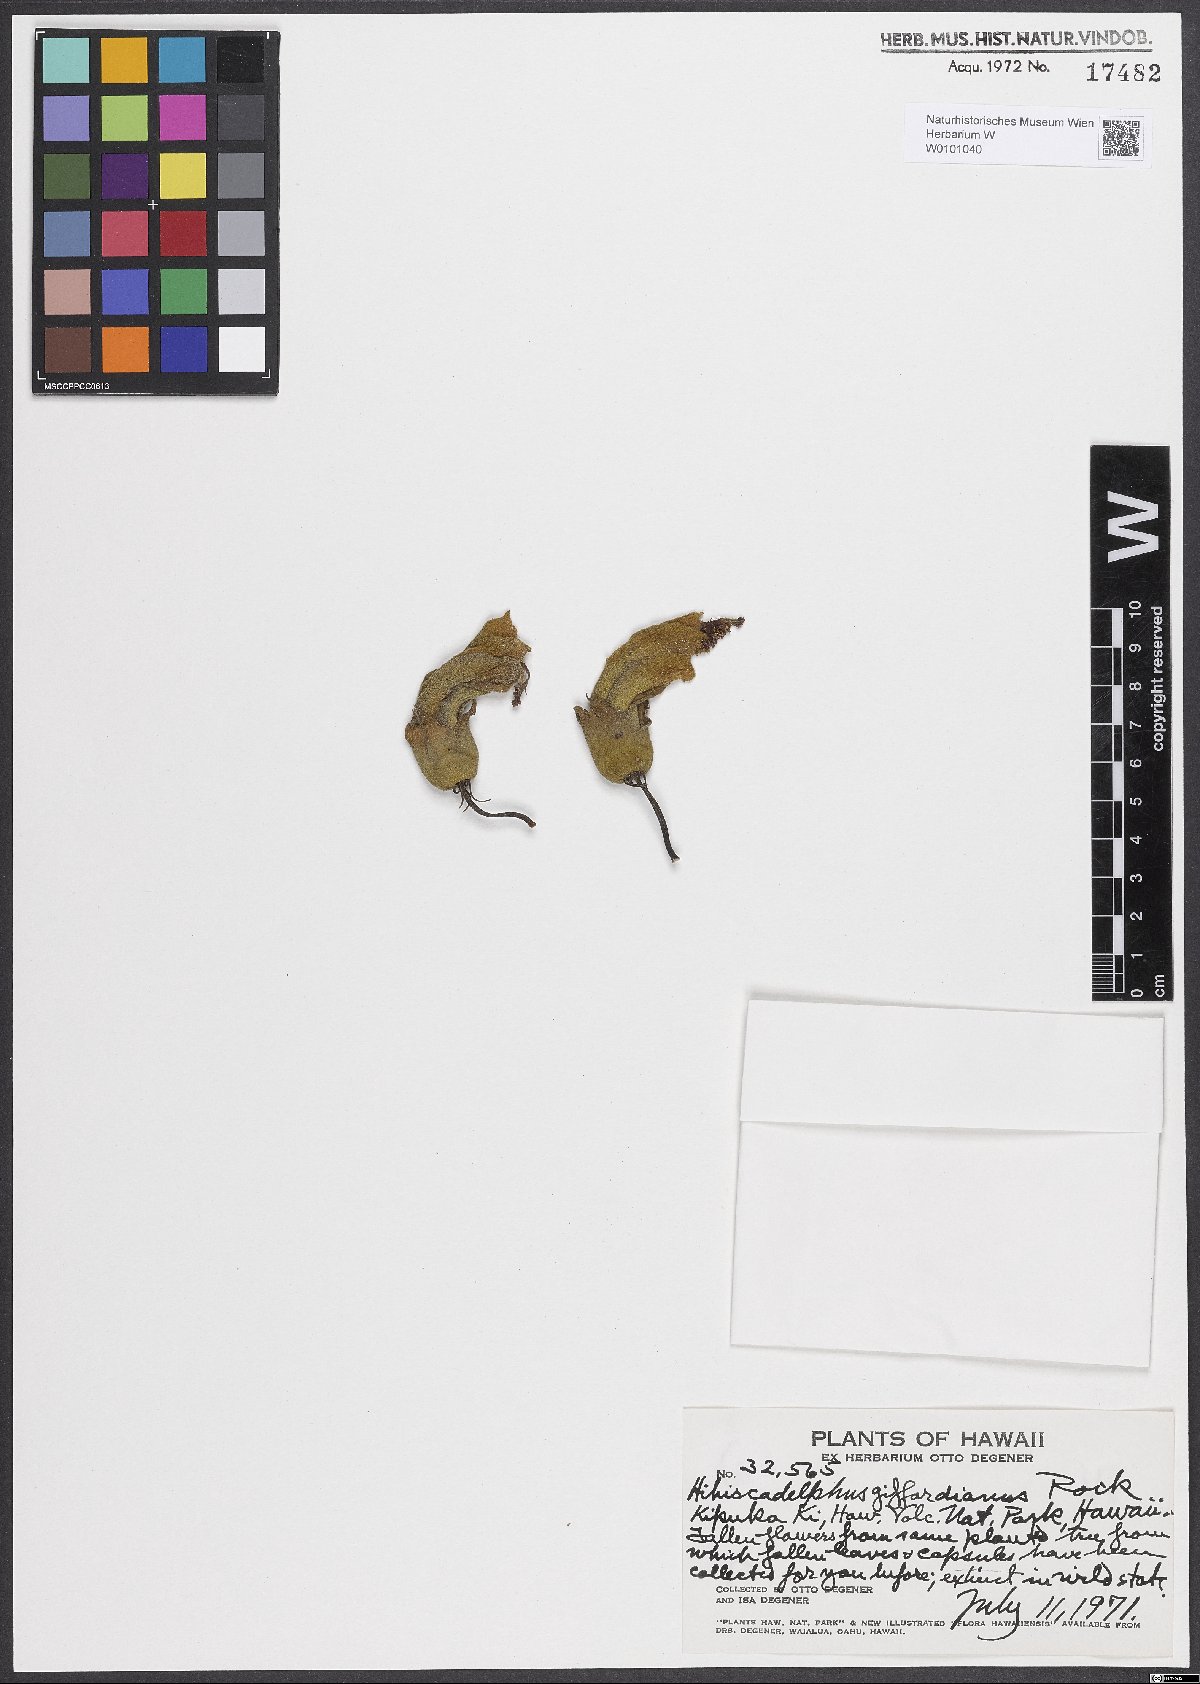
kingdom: Plantae
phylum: Tracheophyta
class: Magnoliopsida
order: Malvales
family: Malvaceae
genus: Hibiscadelphus
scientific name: Hibiscadelphus giffardianus
